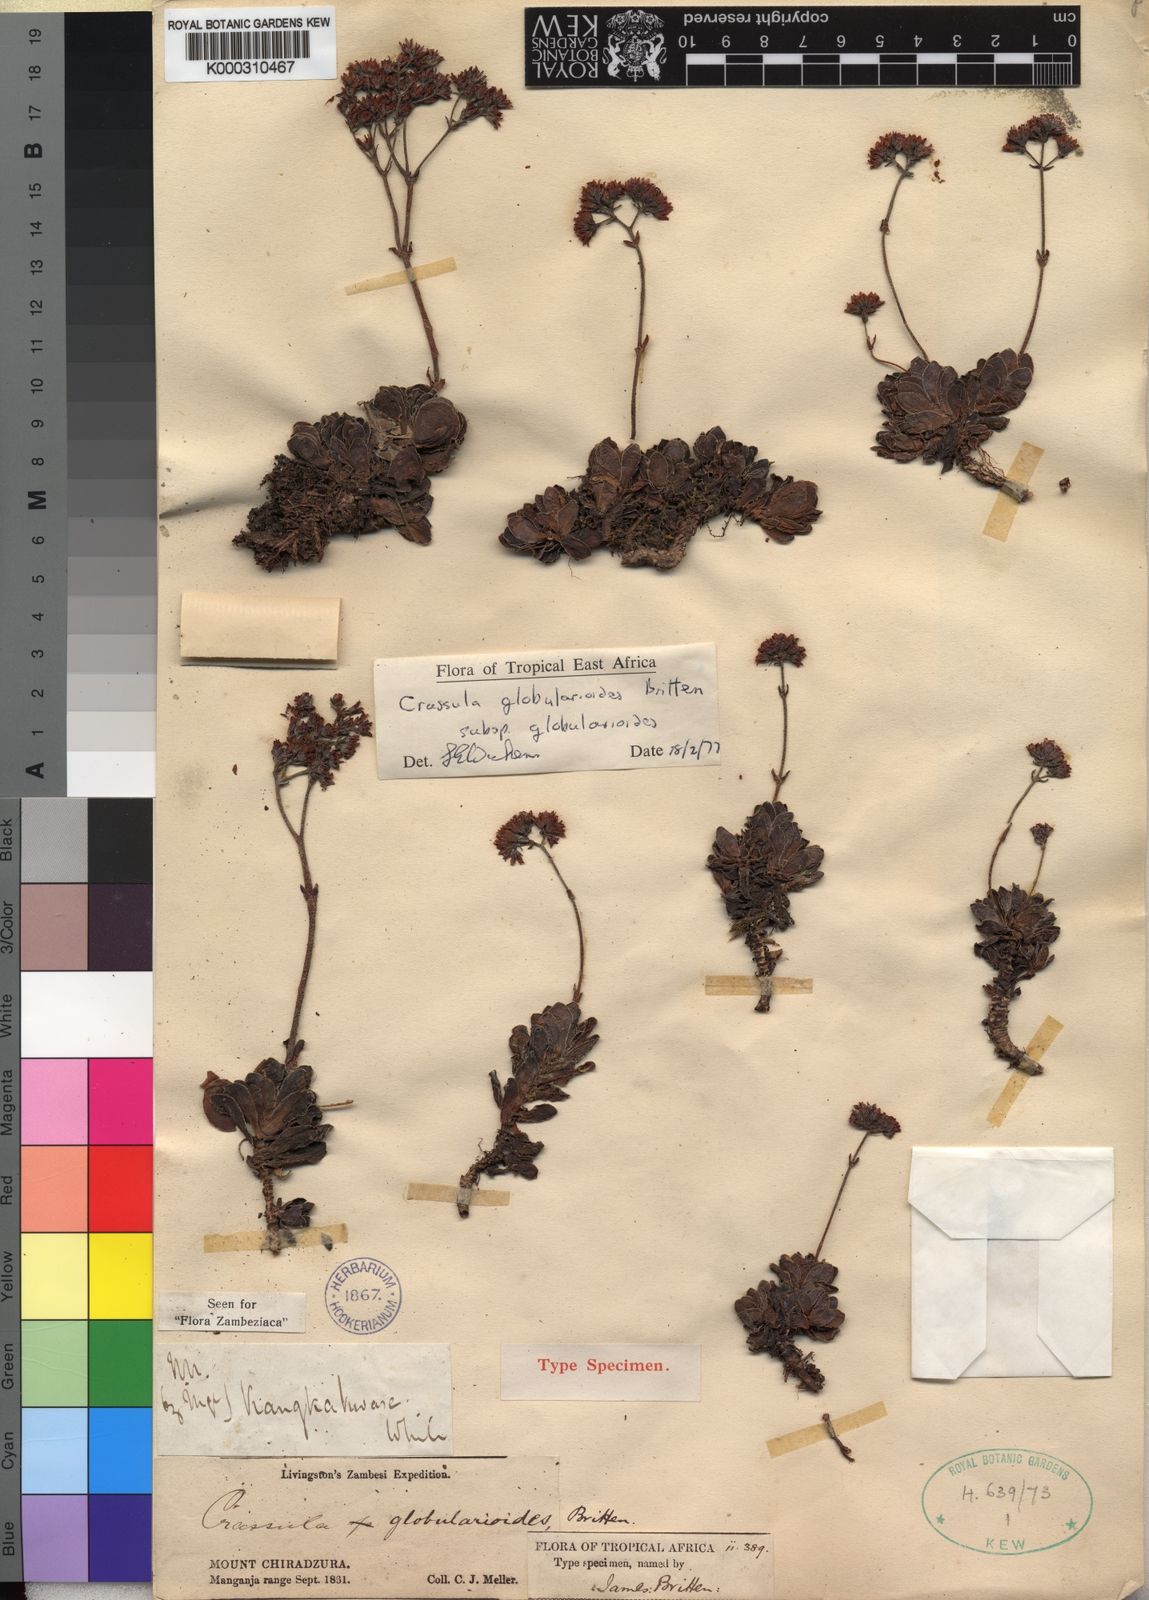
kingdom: Plantae
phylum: Tracheophyta
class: Magnoliopsida
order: Saxifragales
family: Crassulaceae
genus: Crassula
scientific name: Crassula globularioides
